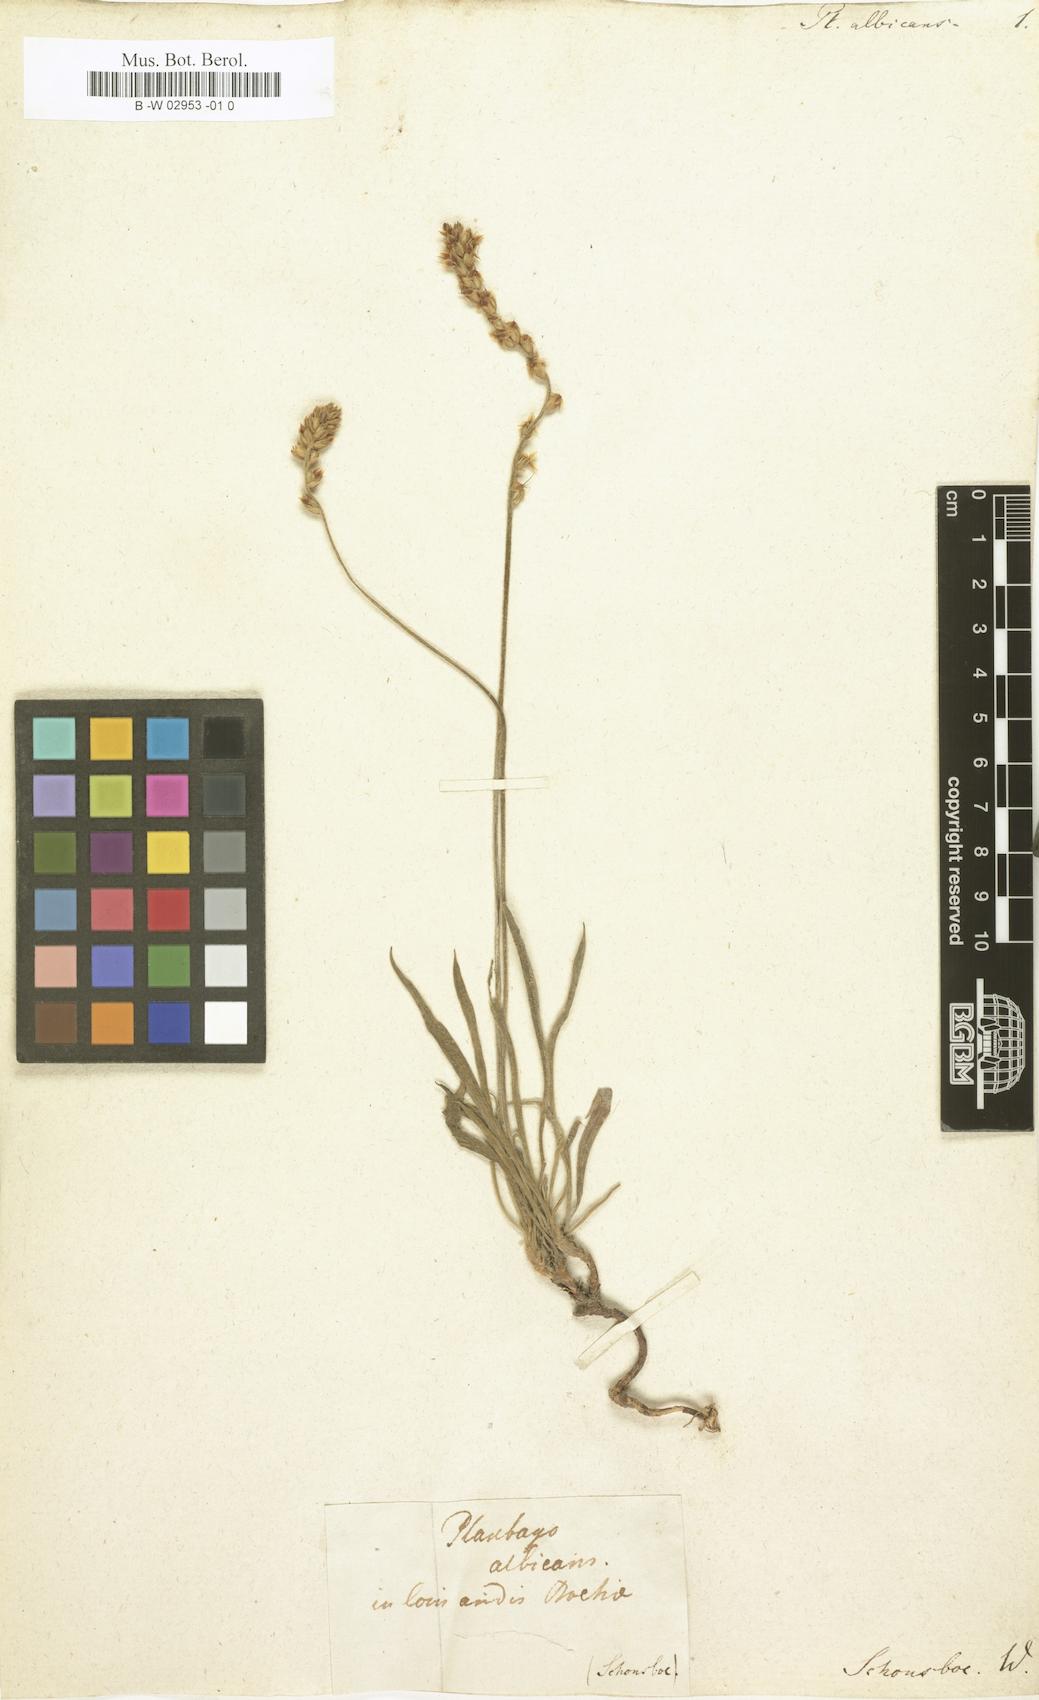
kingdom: Plantae
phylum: Tracheophyta
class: Magnoliopsida
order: Lamiales
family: Plantaginaceae
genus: Plantago
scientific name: Plantago albicans
